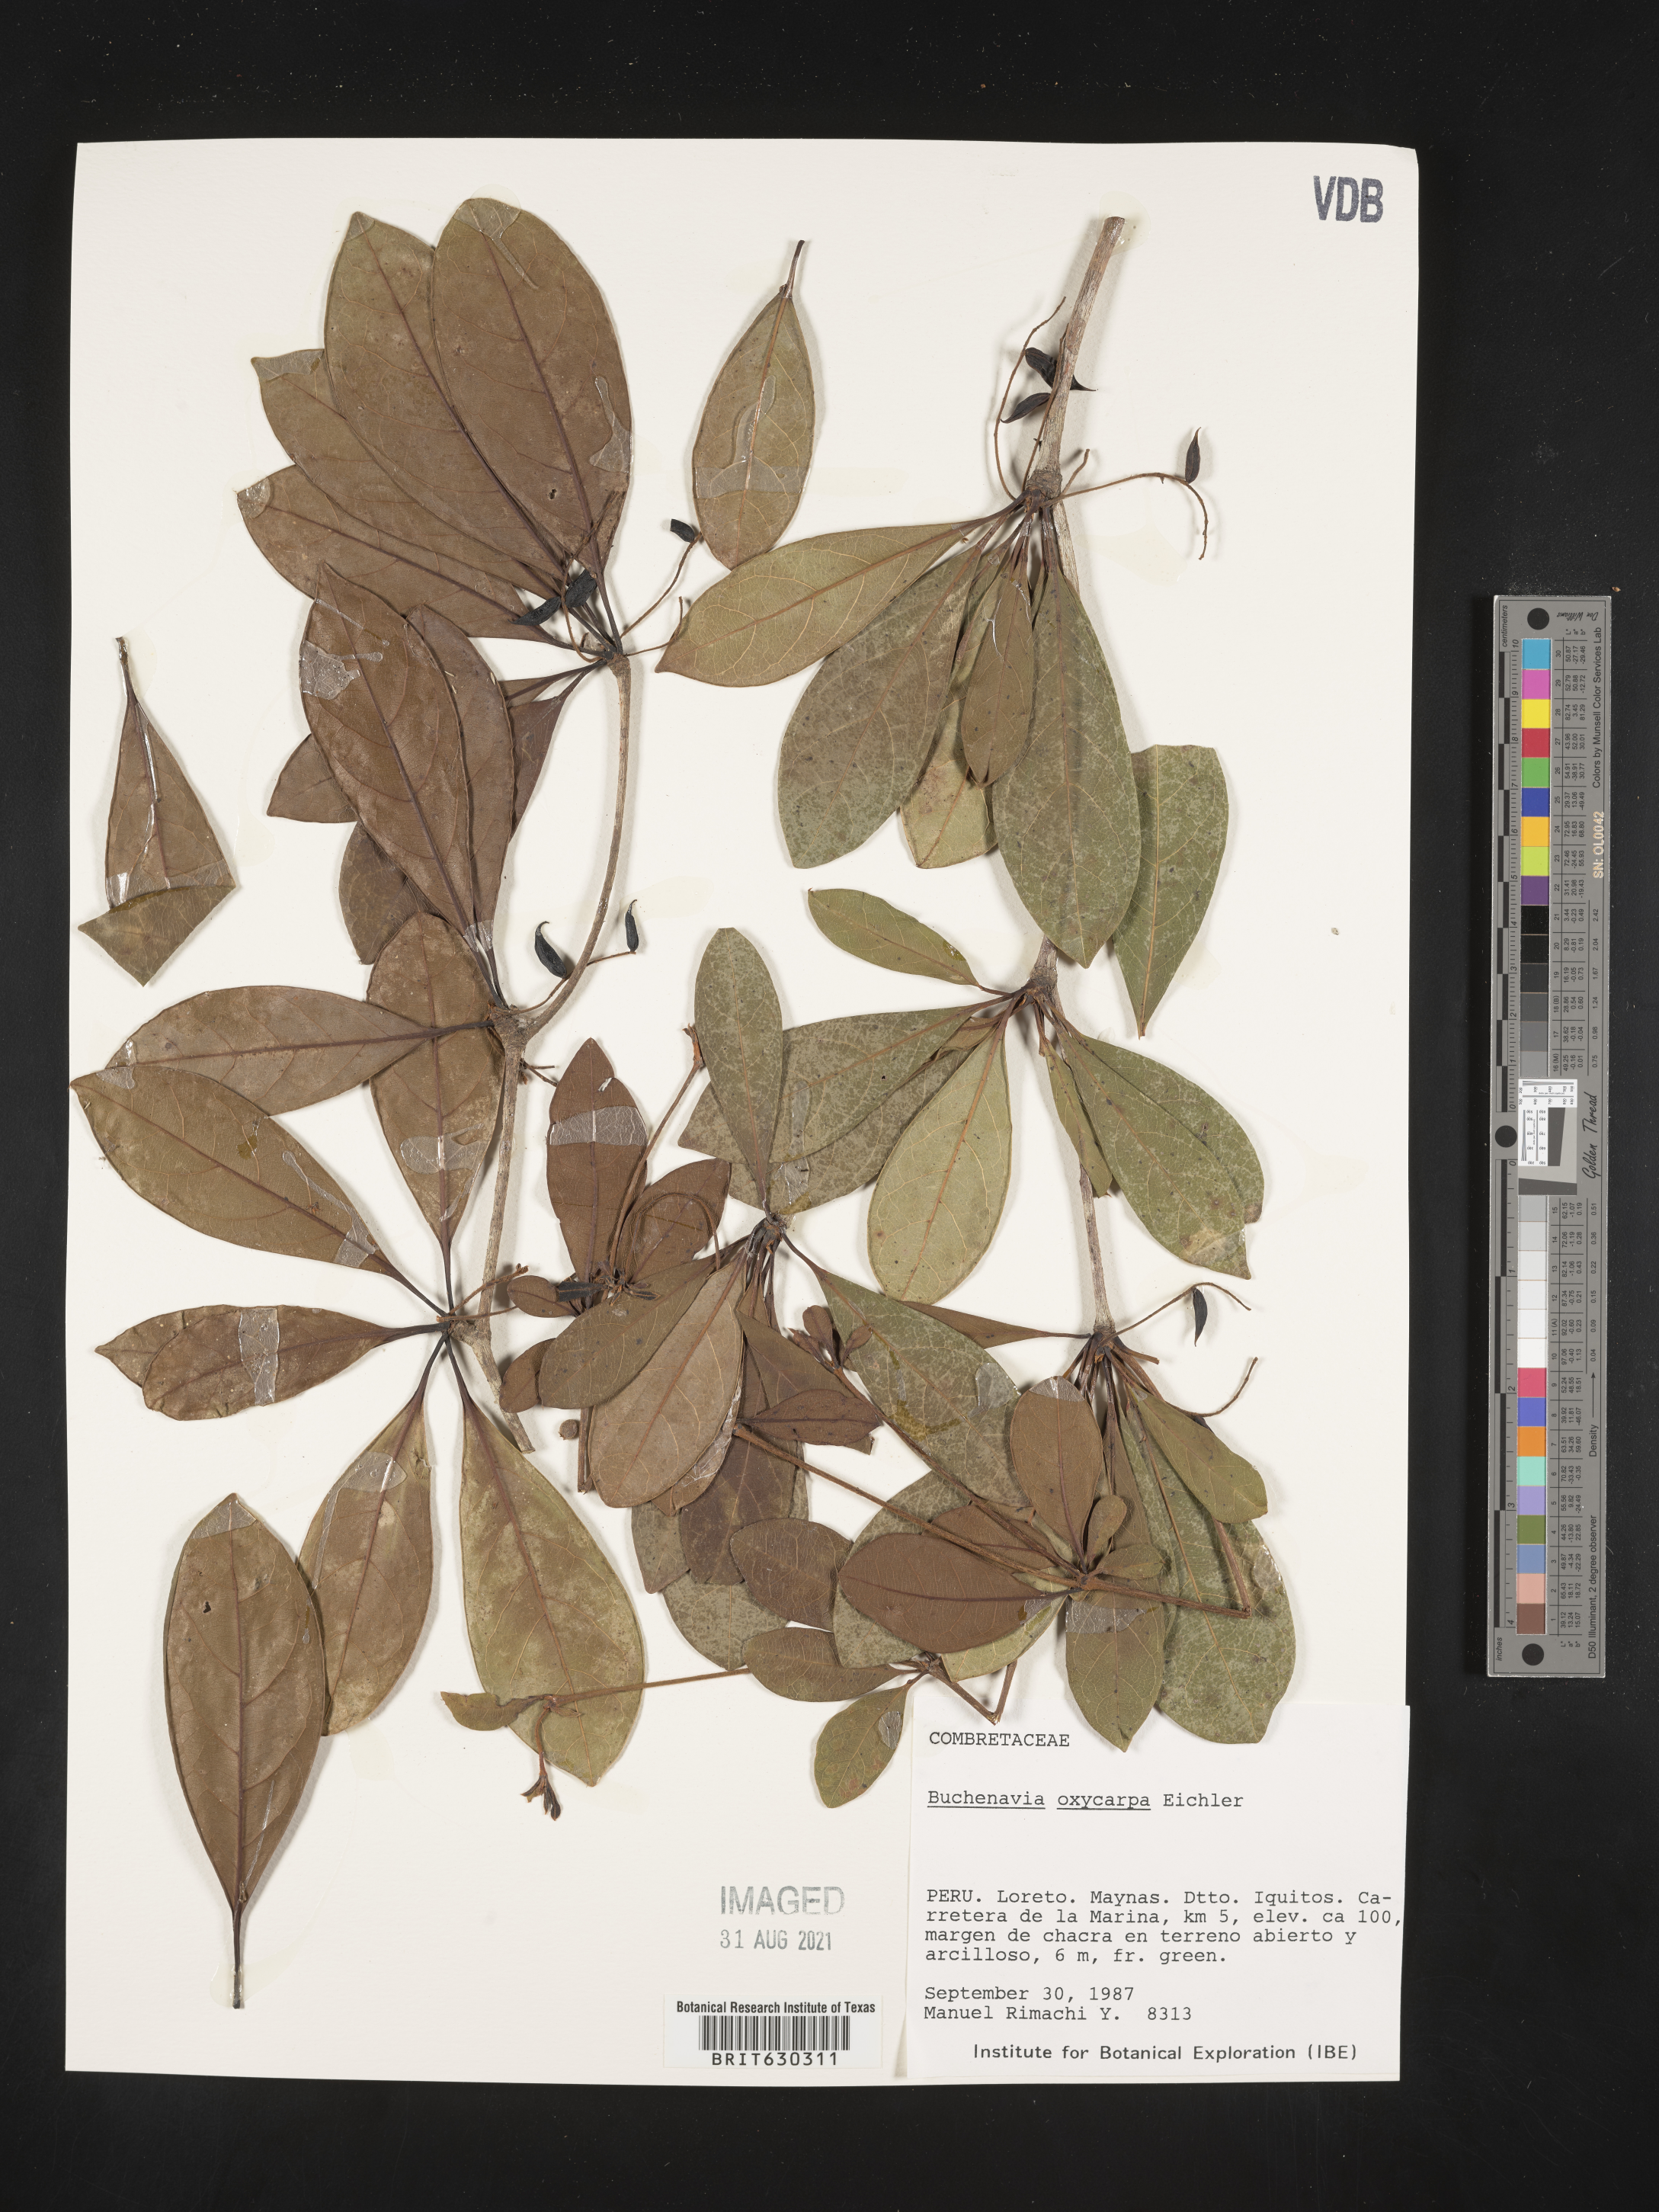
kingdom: Plantae
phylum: Tracheophyta
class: Magnoliopsida
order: Myrtales
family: Combretaceae
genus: Terminalia
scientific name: Terminalia oxycarpa
